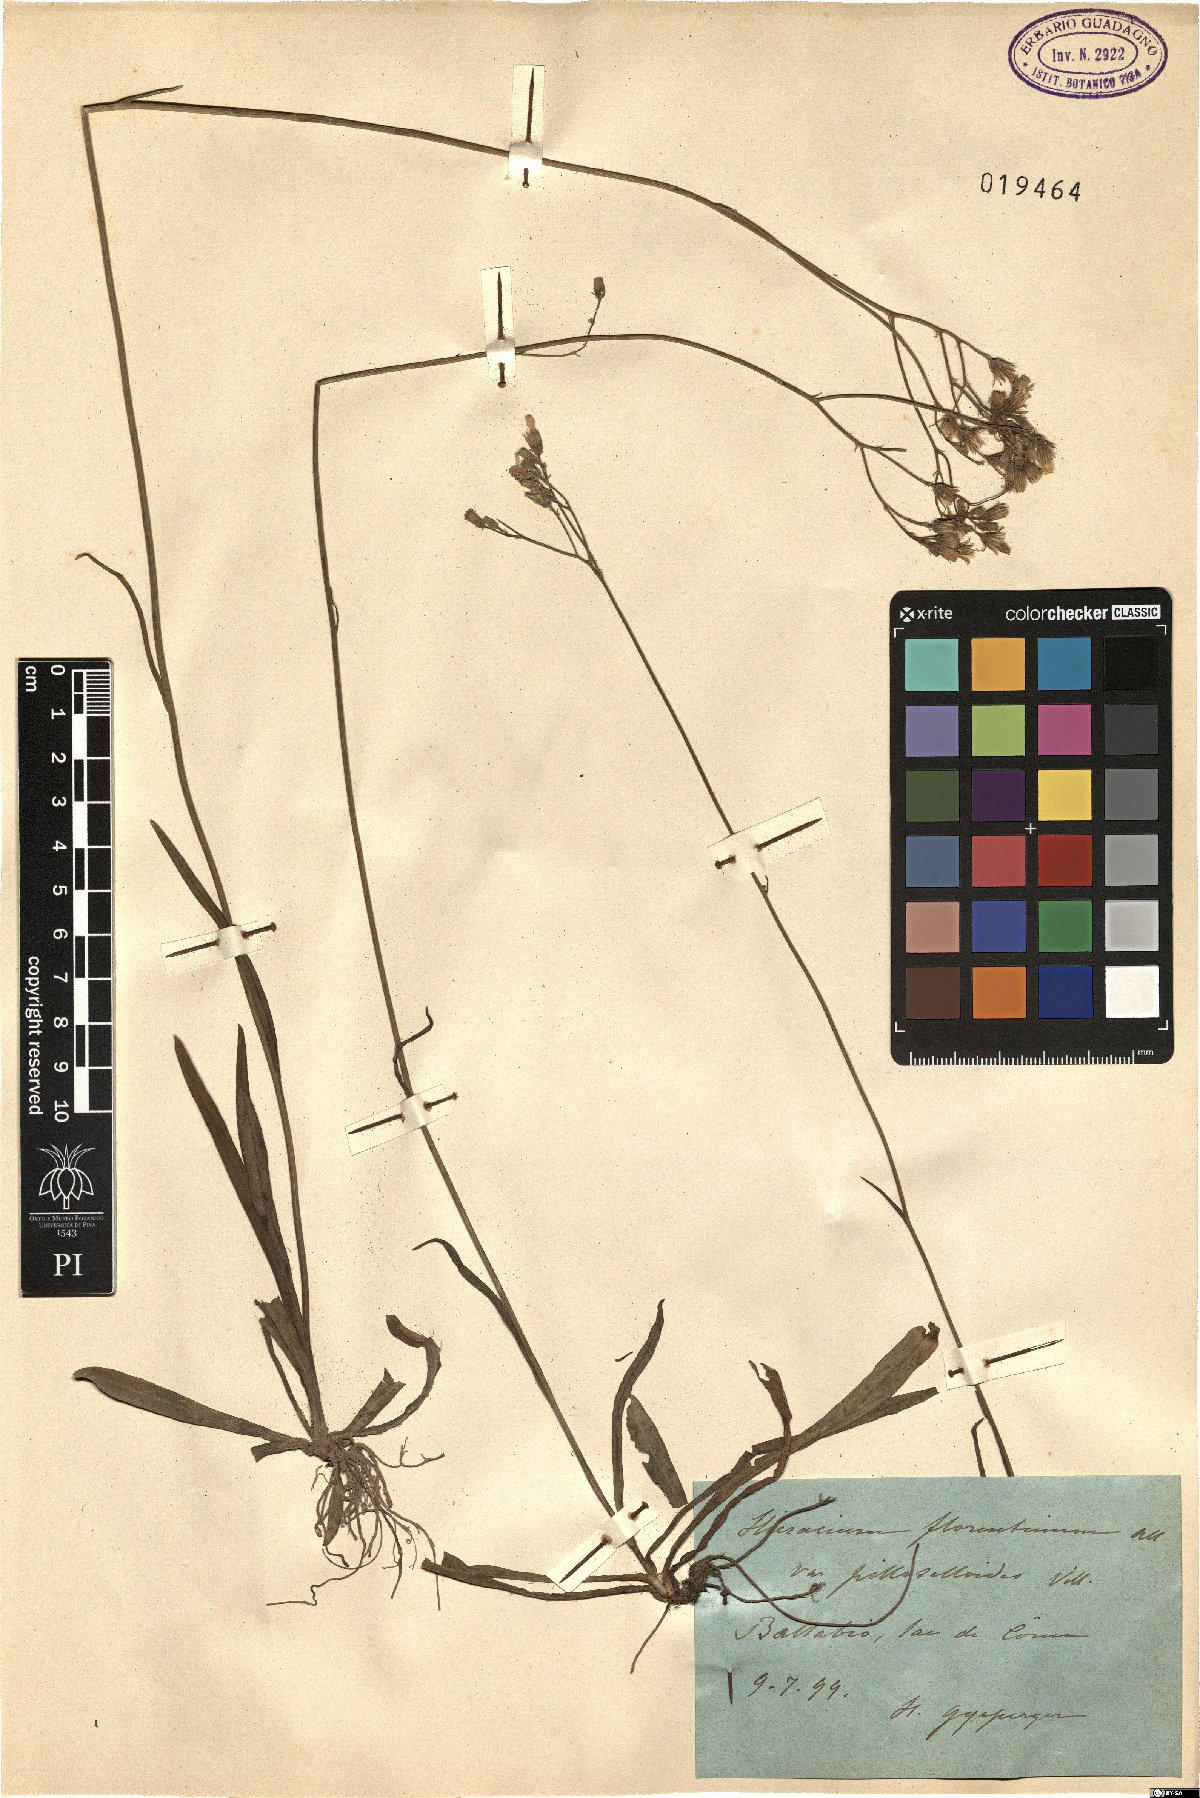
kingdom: Plantae
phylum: Tracheophyta
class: Magnoliopsida
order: Asterales
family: Asteraceae
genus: Pilosella
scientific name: Pilosella piloselloides
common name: Glaucous king-devil
